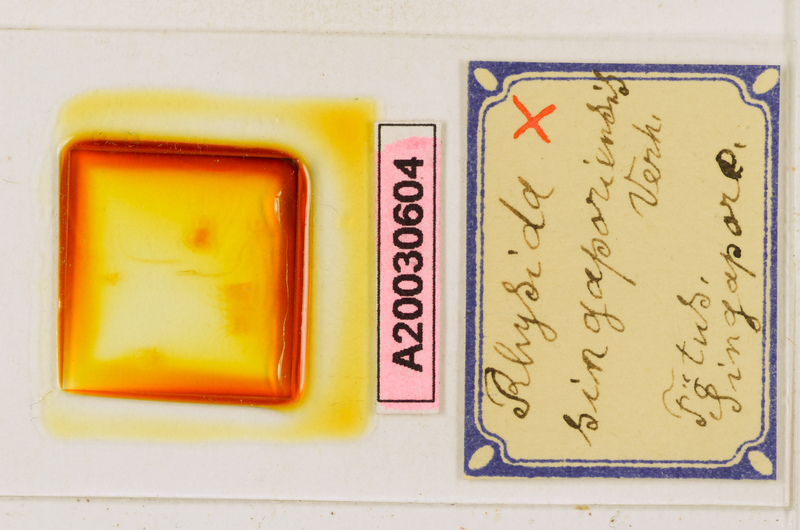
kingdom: Animalia
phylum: Arthropoda
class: Chilopoda
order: Scolopendromorpha
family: Scolopendridae
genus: Rhysida
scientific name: Rhysida singaporiensis
